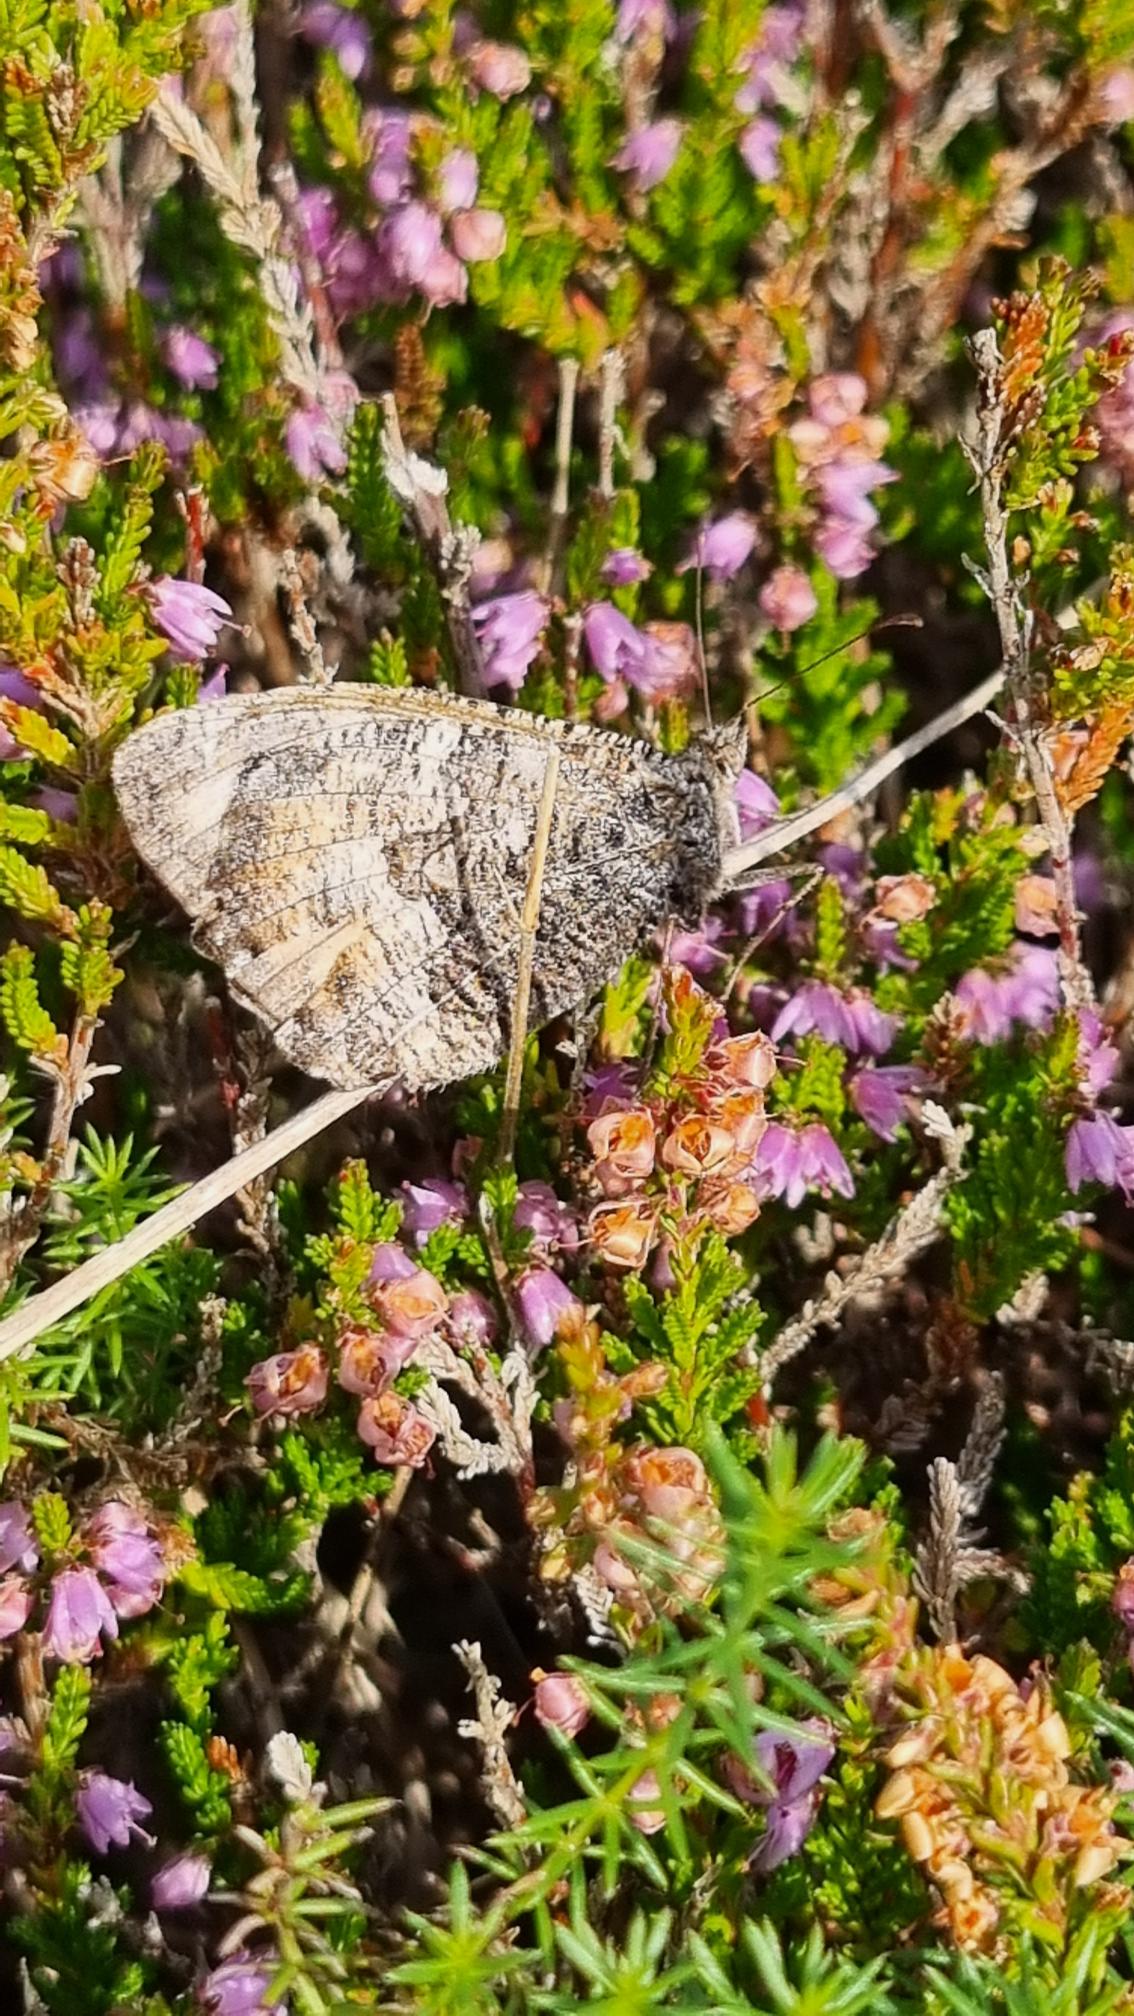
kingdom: Animalia
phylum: Arthropoda
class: Insecta
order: Lepidoptera
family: Nymphalidae
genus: Hipparchia
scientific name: Hipparchia semele
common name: Sandrandøje
